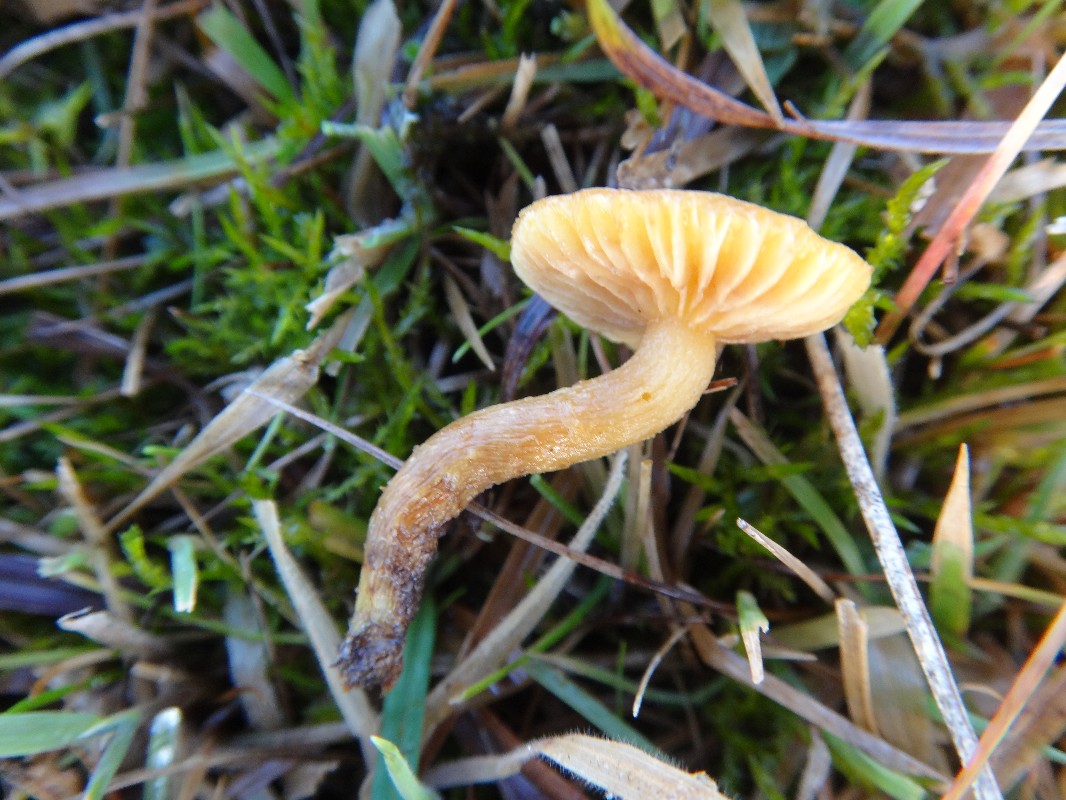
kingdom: Fungi
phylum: Basidiomycota
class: Agaricomycetes
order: Agaricales
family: Strophariaceae
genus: Pholiota
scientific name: Pholiota conissans
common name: pile-skælhat
